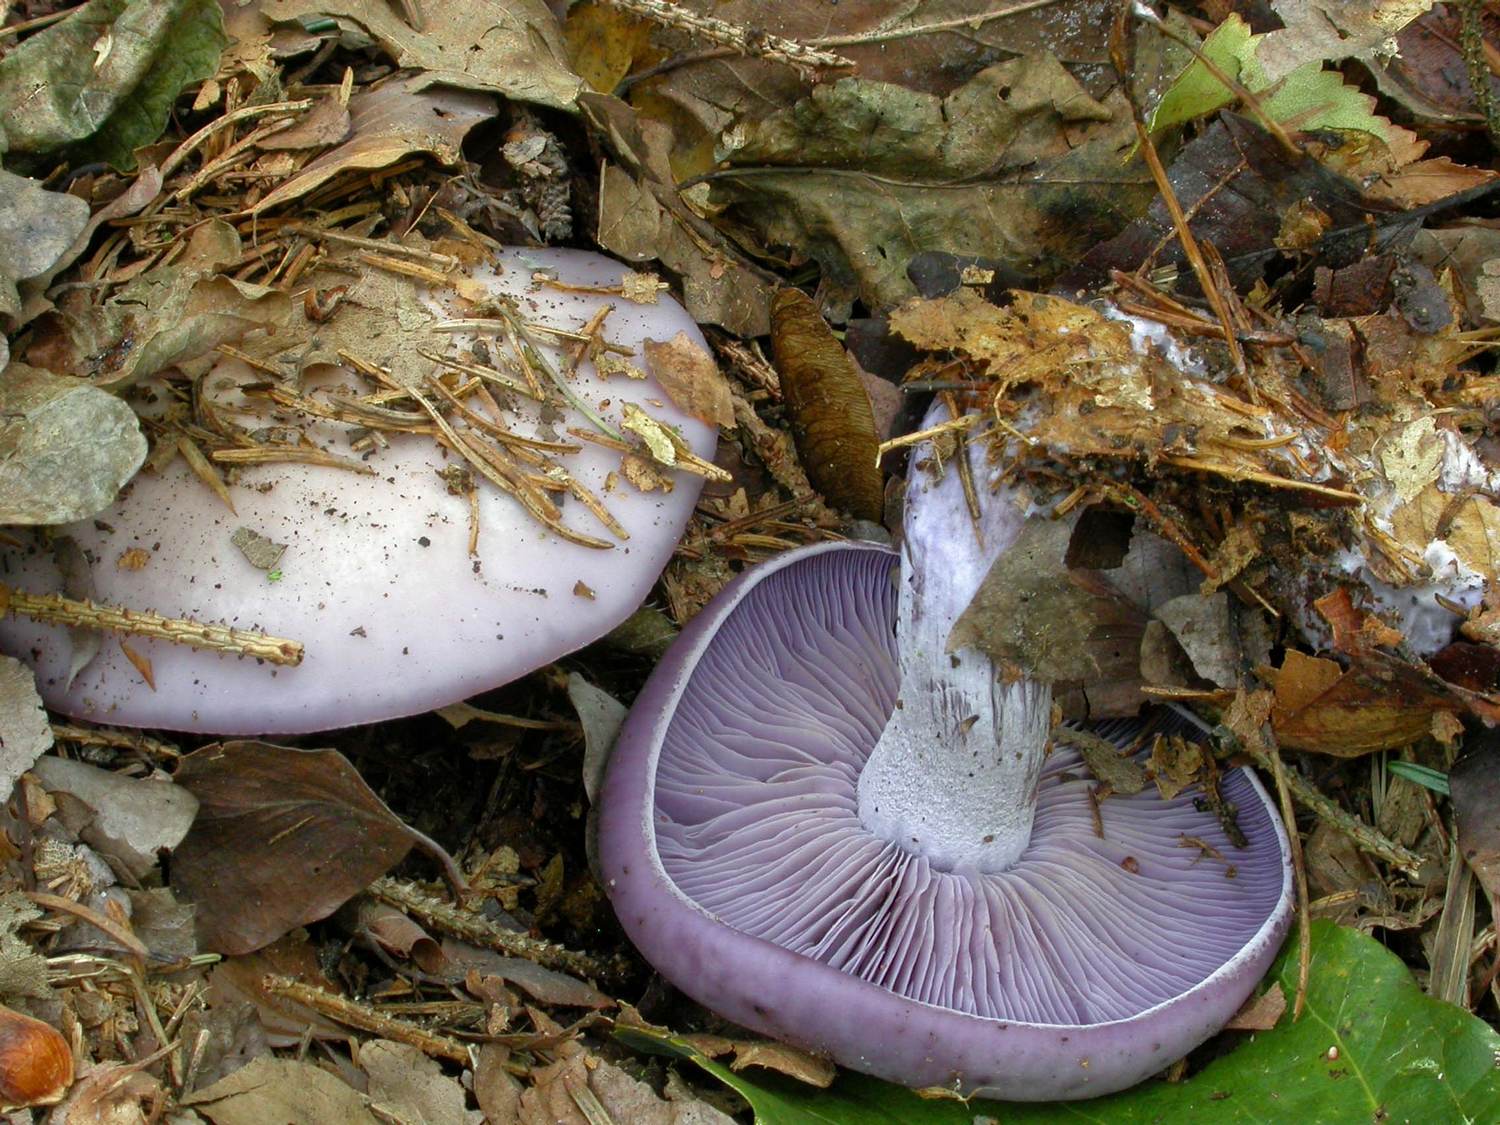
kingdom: Fungi
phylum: Basidiomycota
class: Agaricomycetes
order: Agaricales
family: Tricholomataceae
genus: Lepista
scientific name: Lepista nuda
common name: violet hekseringshat
